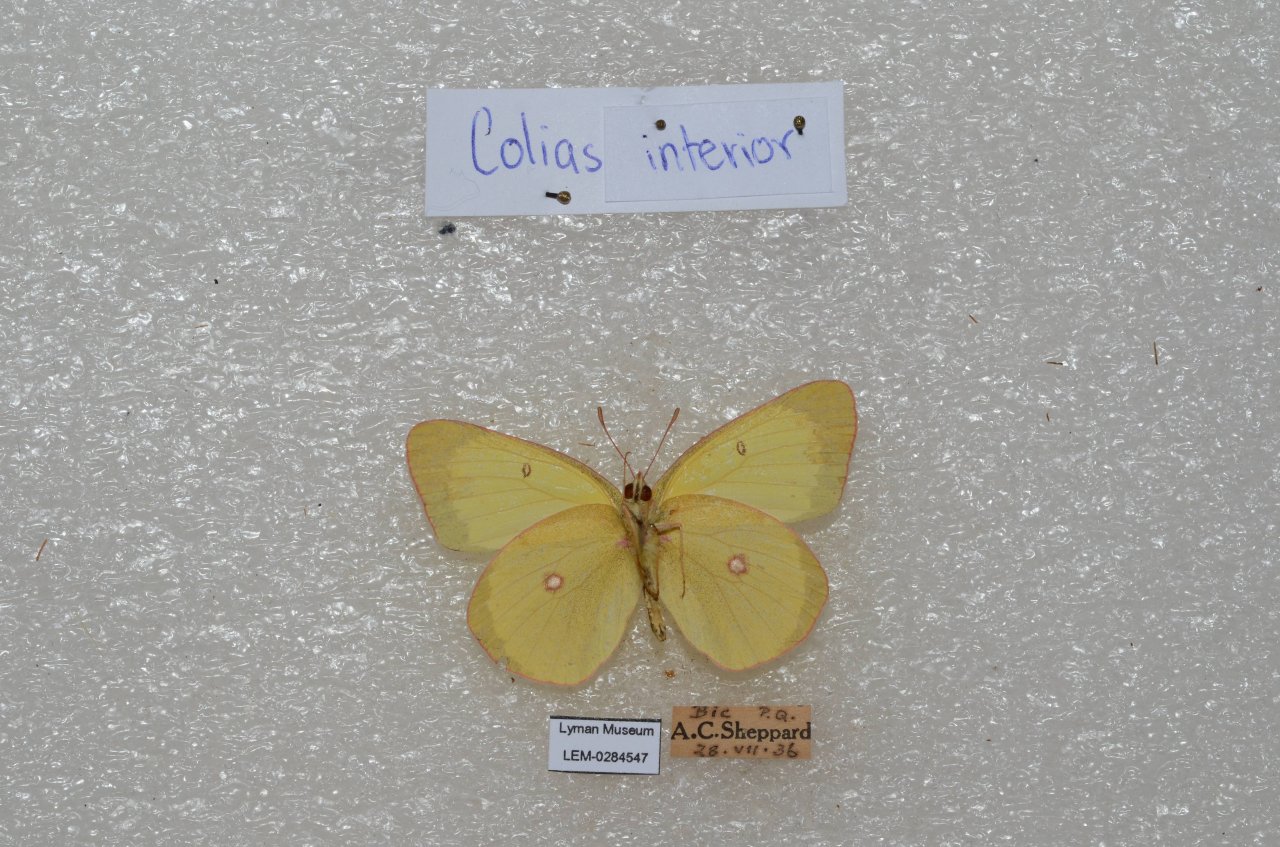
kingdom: Animalia
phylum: Arthropoda
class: Insecta
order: Lepidoptera
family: Pieridae
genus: Colias
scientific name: Colias interior
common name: Pink-edged Sulphur
